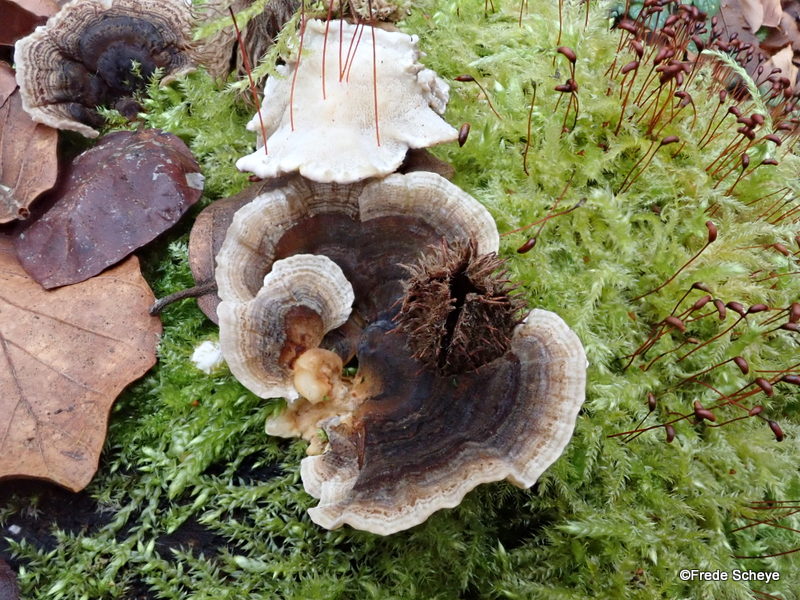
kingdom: Fungi
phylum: Basidiomycota
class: Agaricomycetes
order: Polyporales
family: Polyporaceae
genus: Trametes
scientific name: Trametes versicolor
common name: broget læderporesvamp
